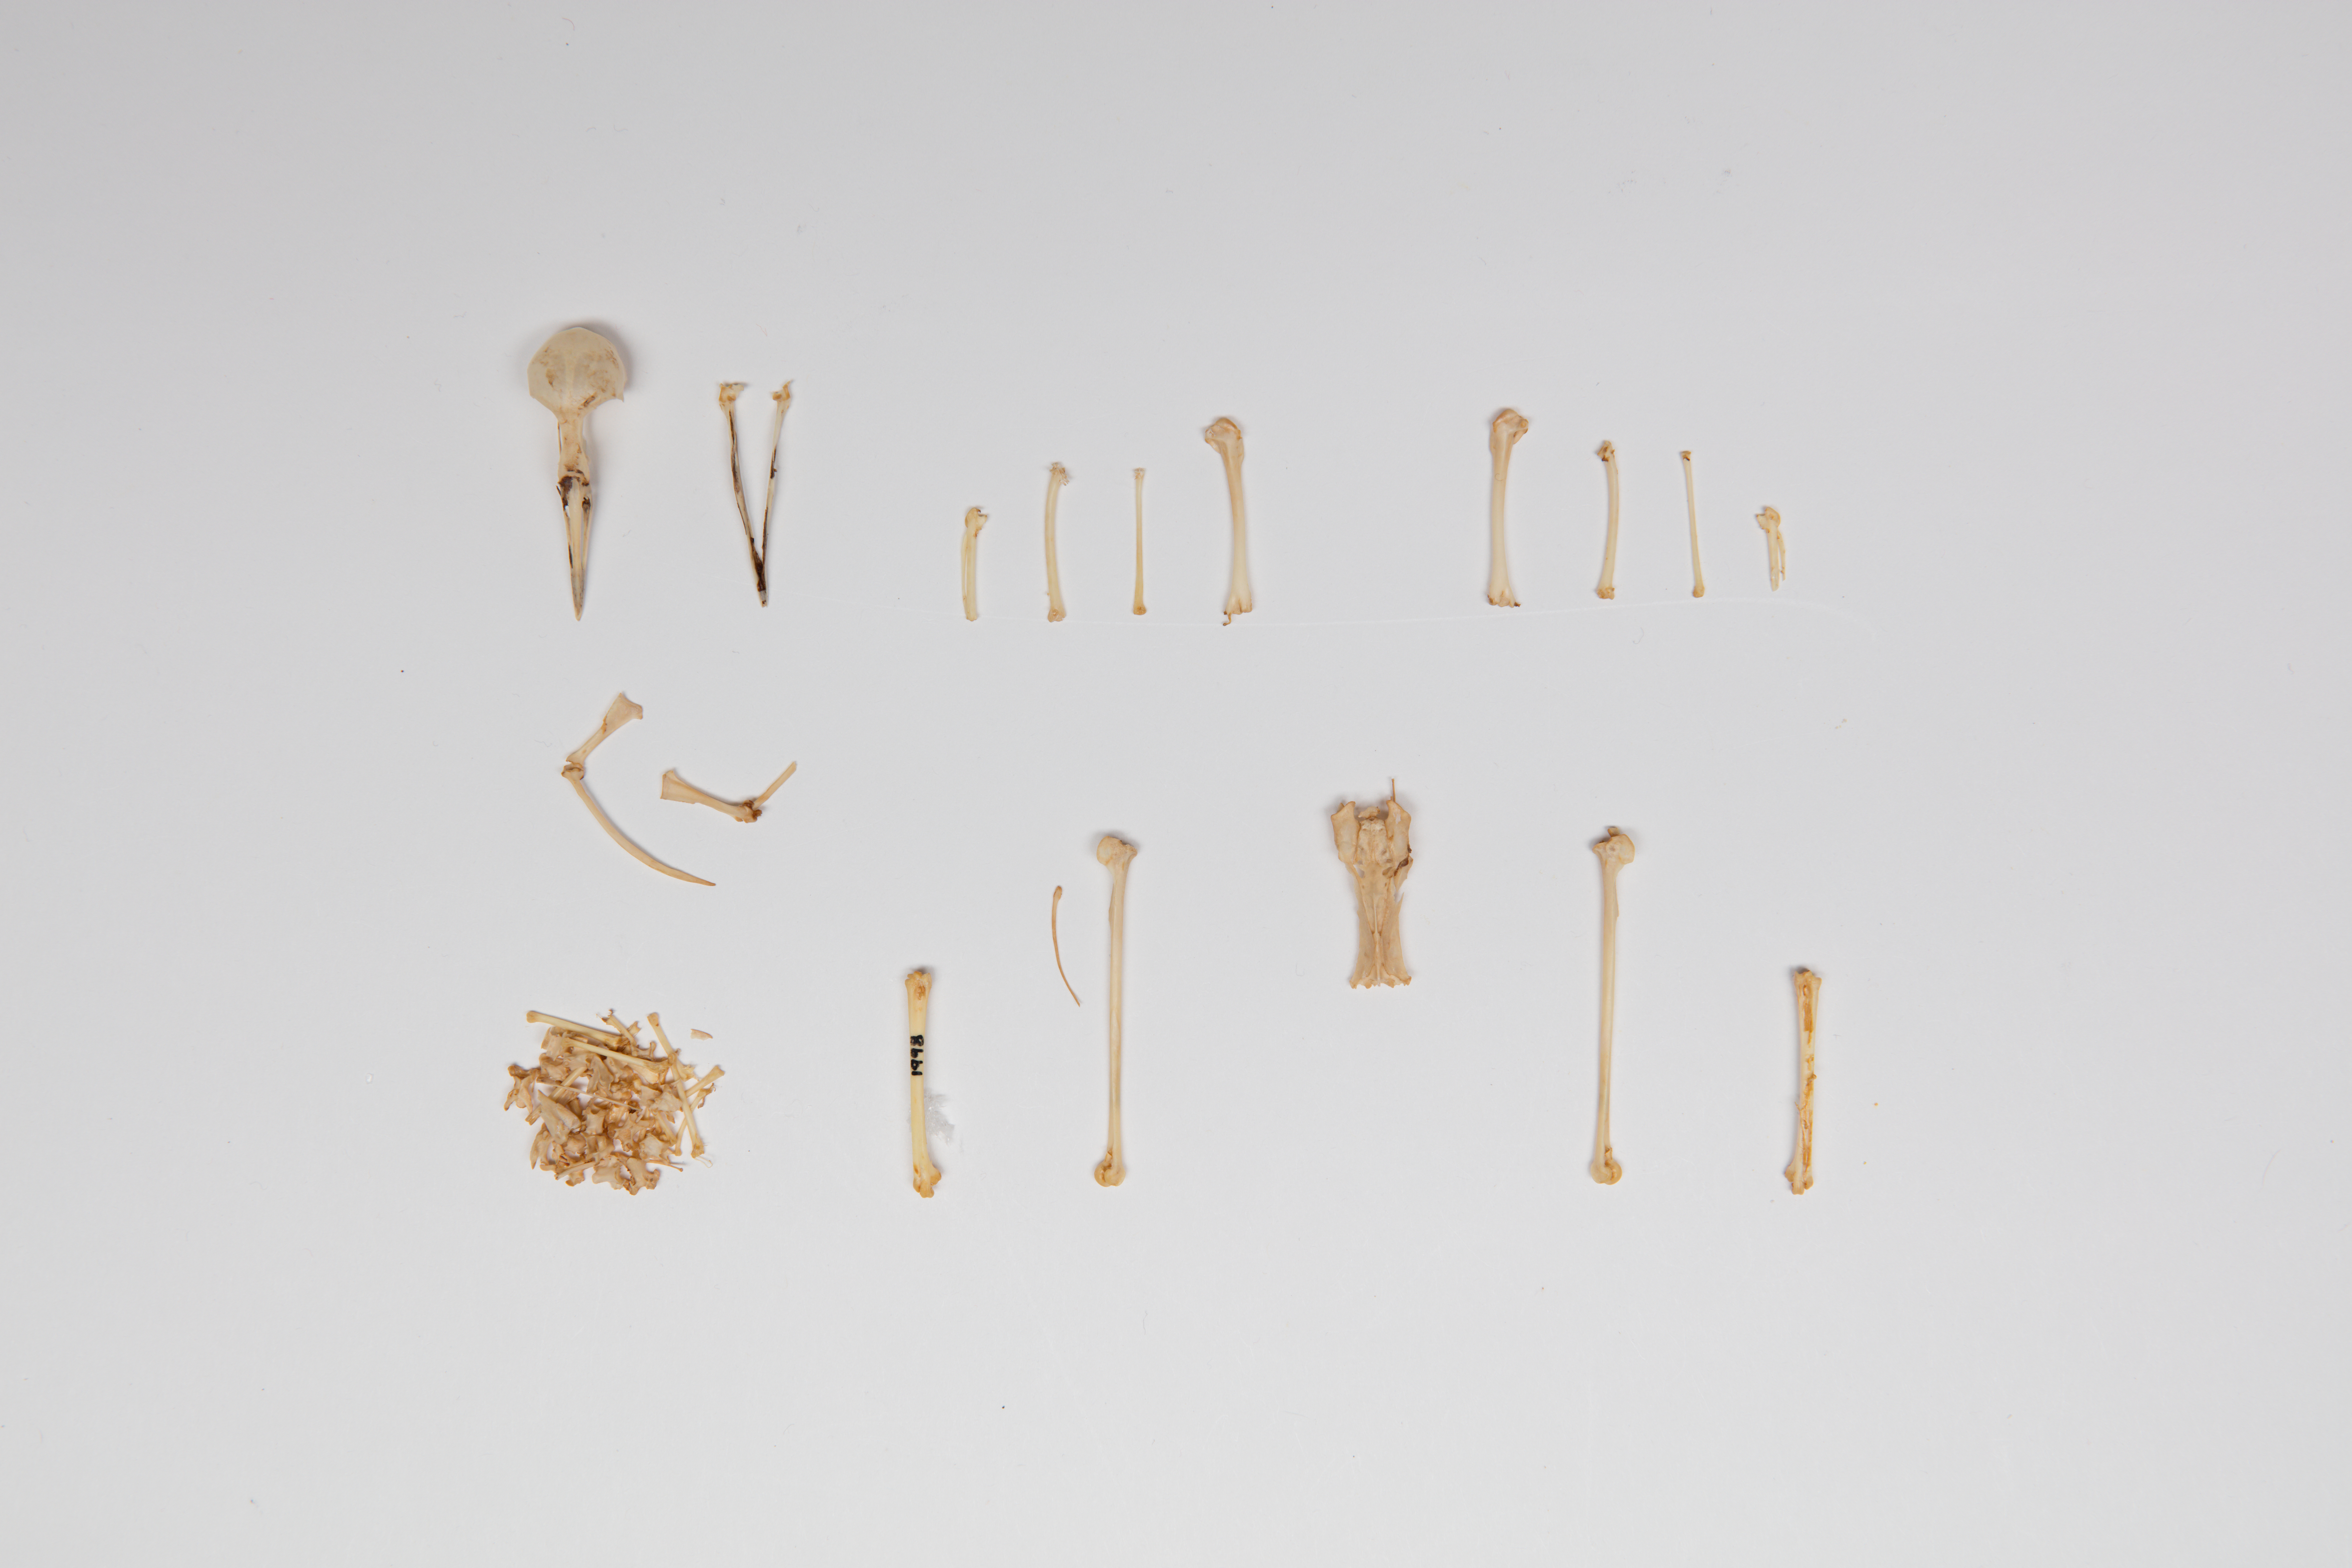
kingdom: Animalia
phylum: Chordata
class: Aves
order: Gruiformes
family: Rallidae
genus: Porzana
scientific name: Porzana pusilla
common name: Baillon's crake
